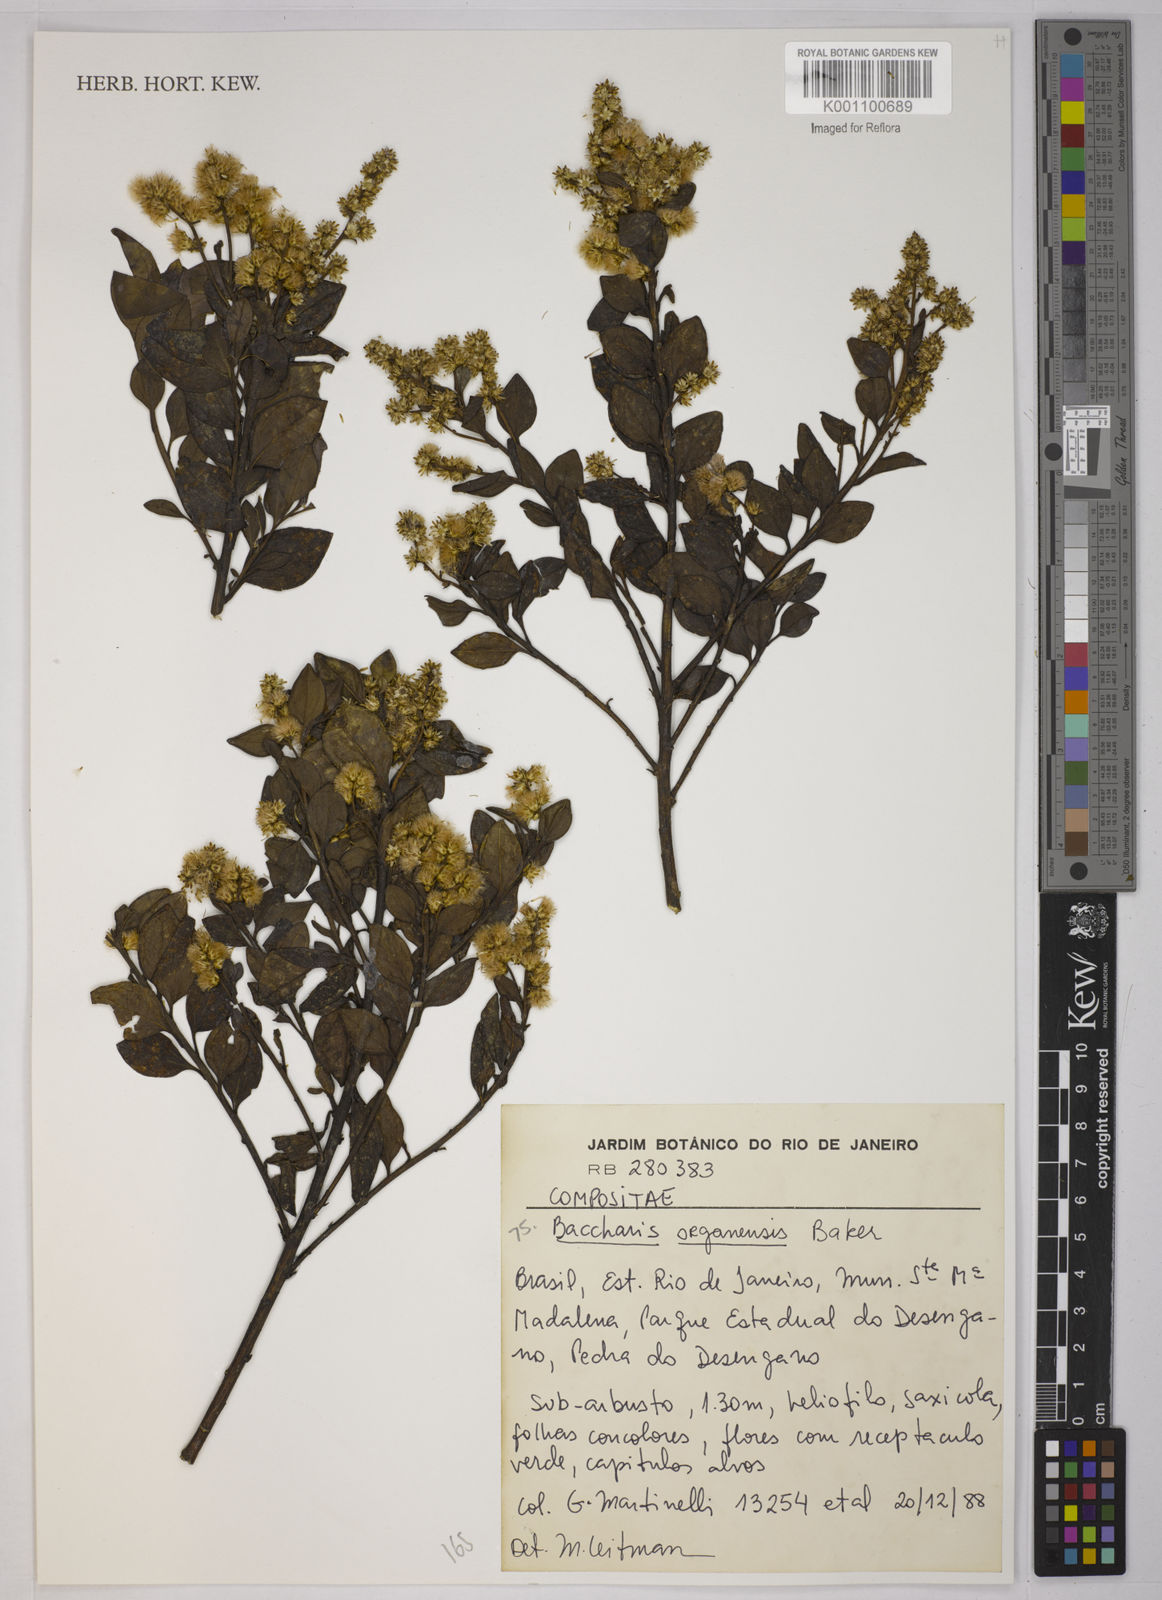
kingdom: Plantae
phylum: Tracheophyta
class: Magnoliopsida
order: Asterales
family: Asteraceae
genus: Baccharis
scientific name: Baccharis organensis
